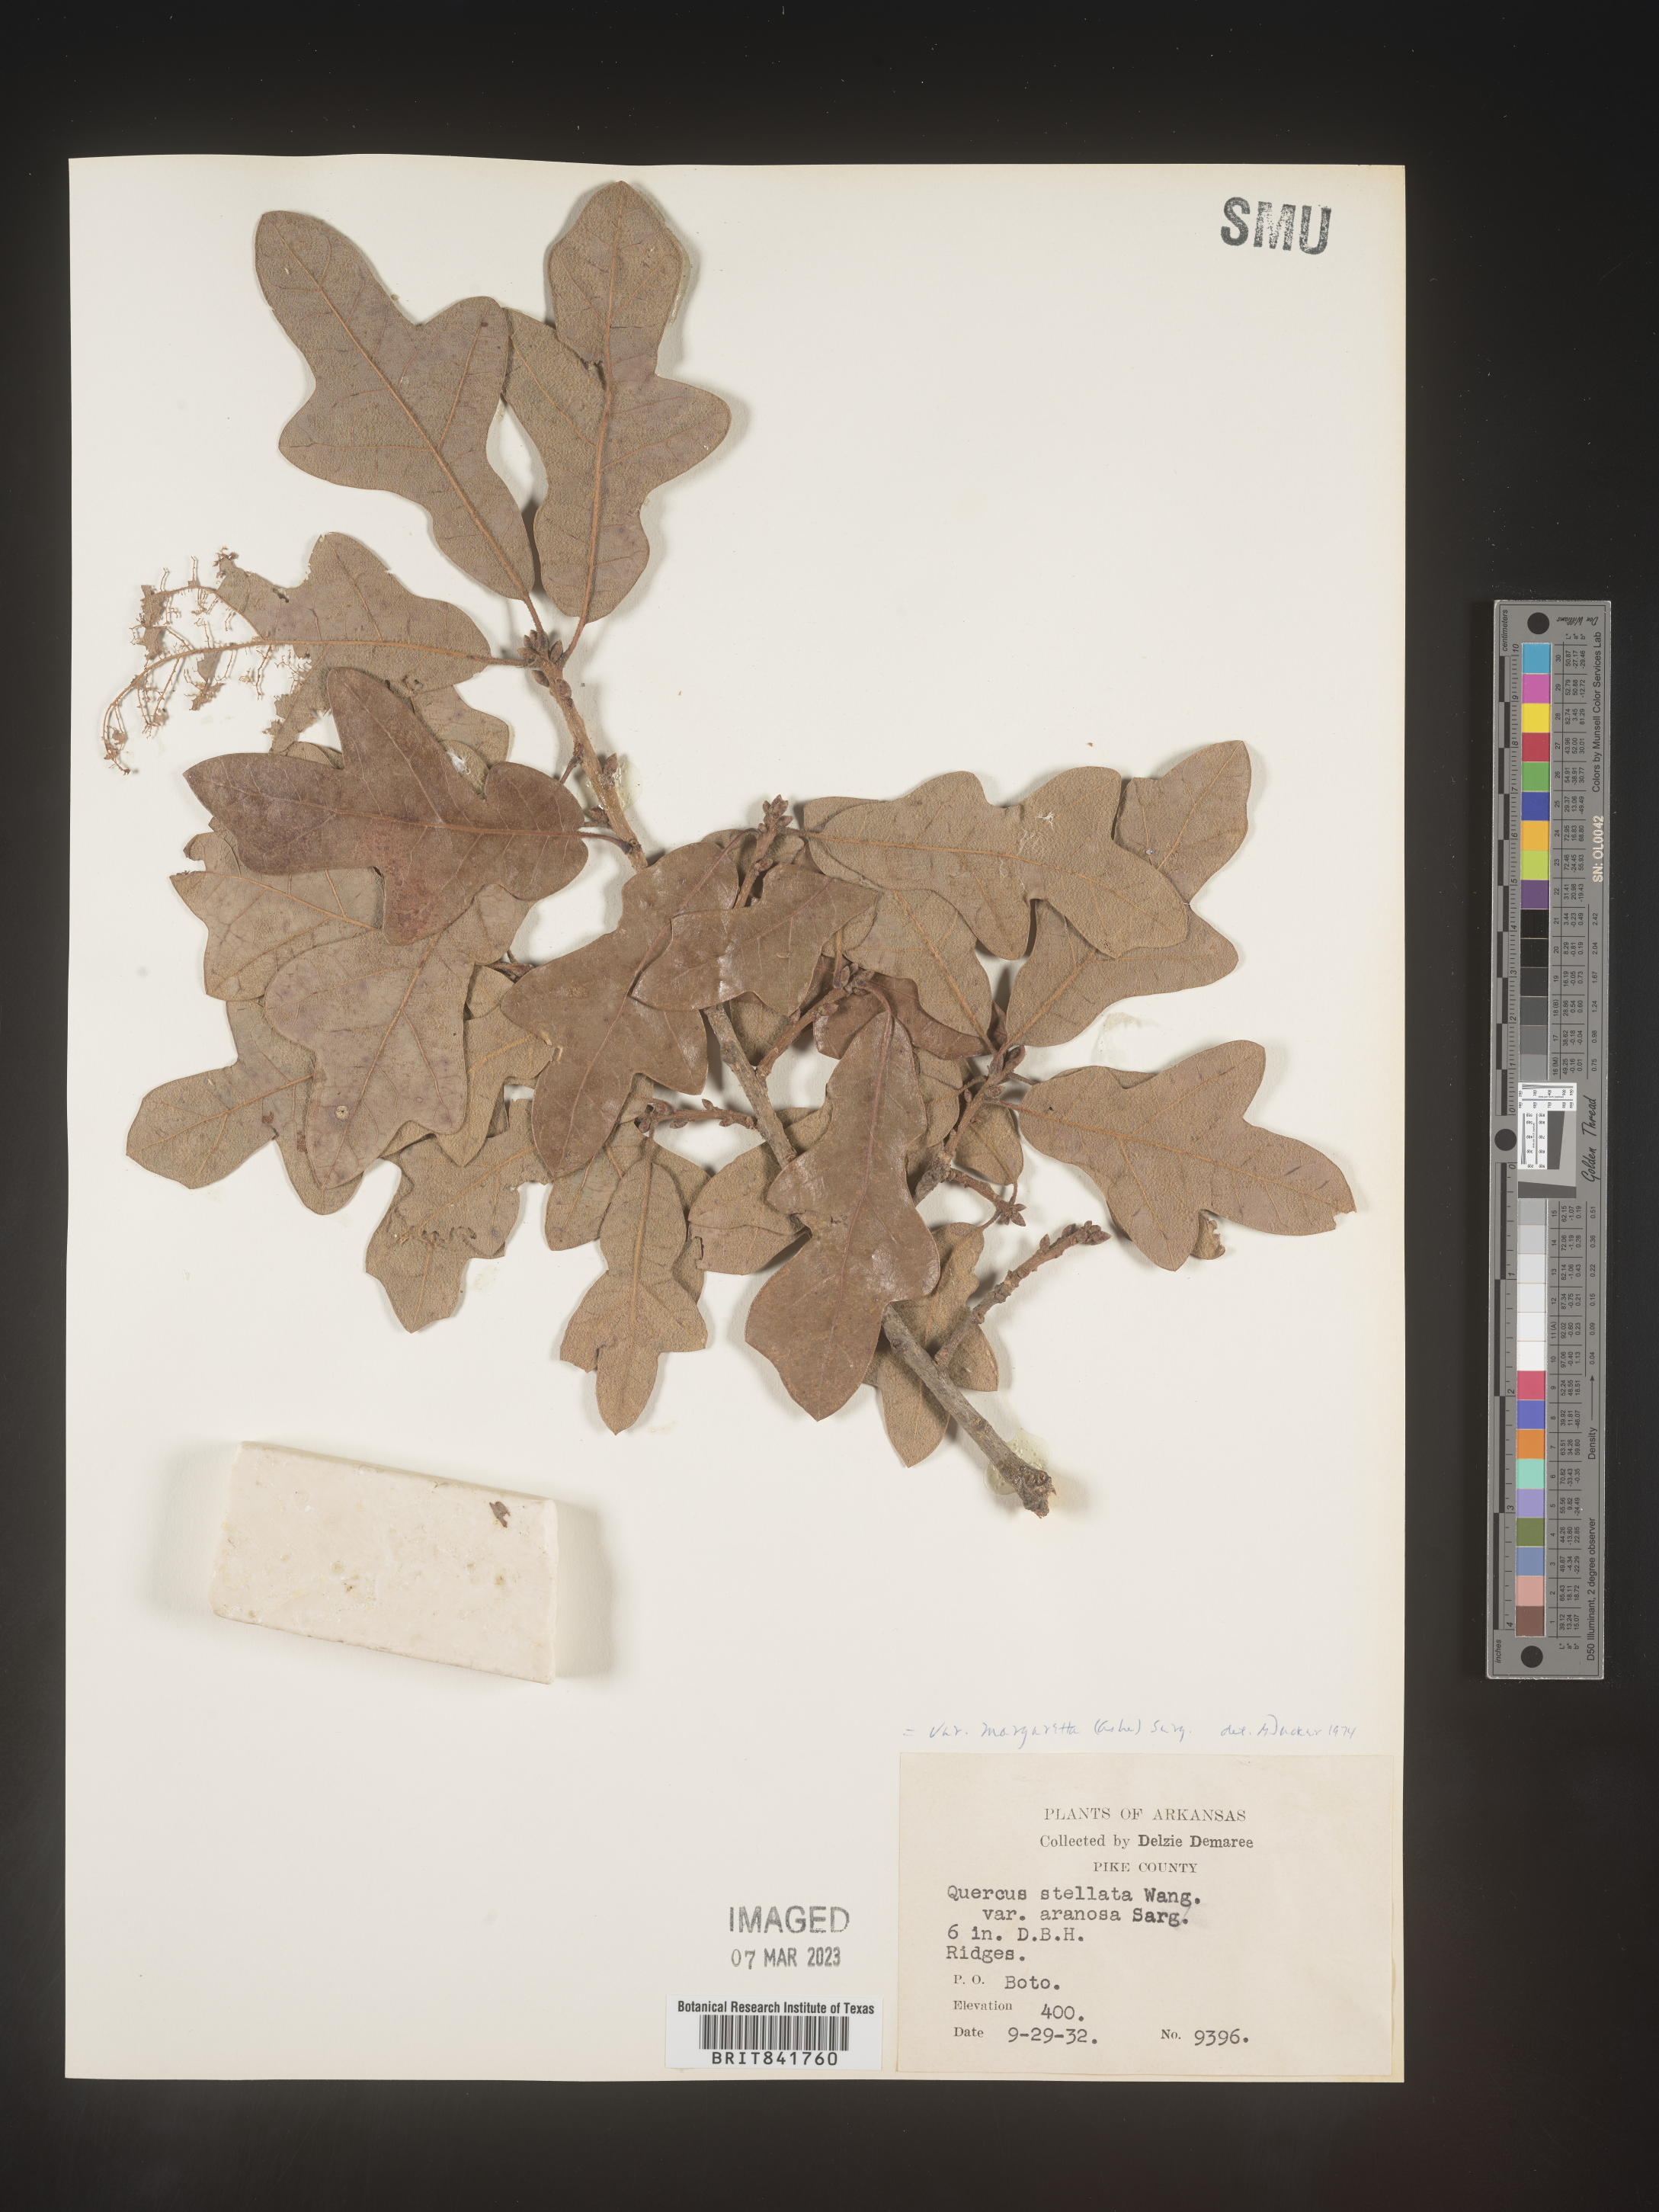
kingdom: Plantae
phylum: Tracheophyta
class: Magnoliopsida
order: Fagales
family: Fagaceae
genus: Quercus
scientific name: Quercus stellata
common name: Post oak
